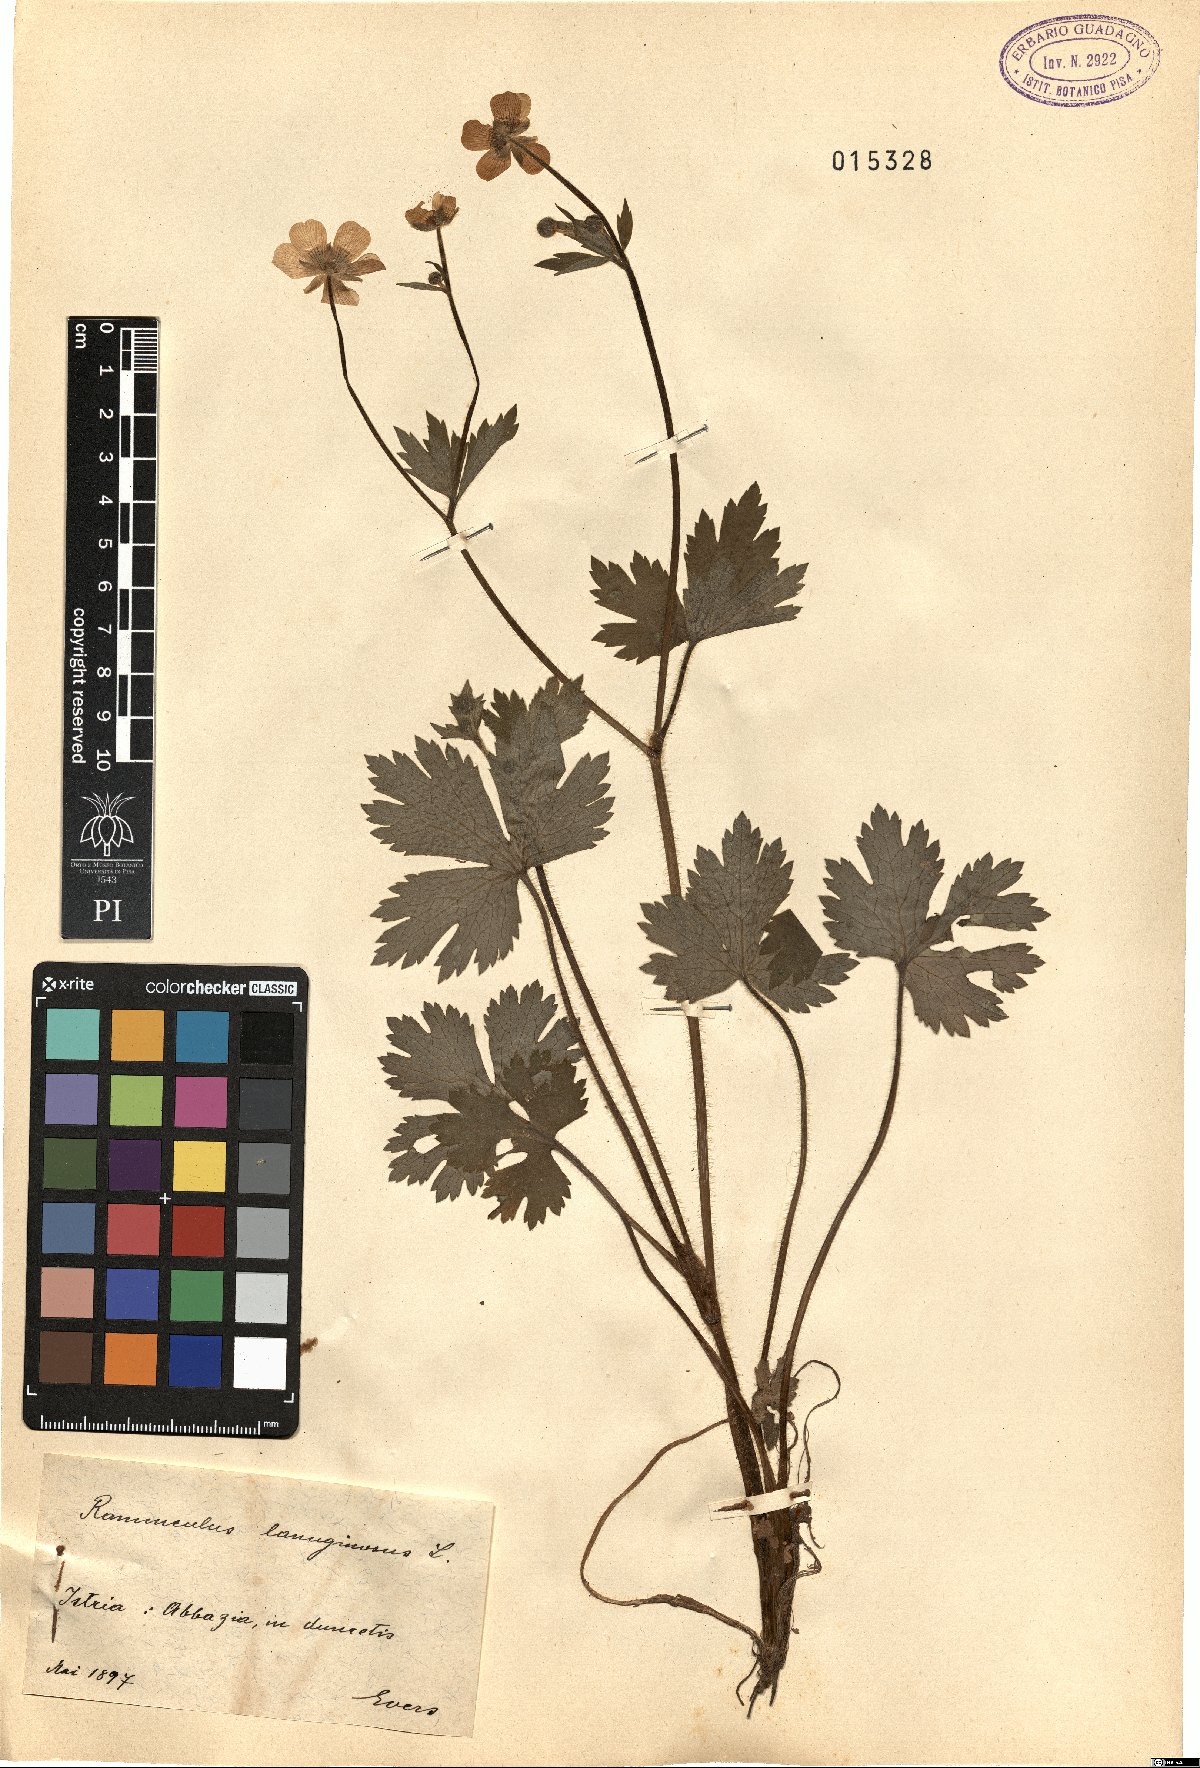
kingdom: Plantae
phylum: Tracheophyta
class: Magnoliopsida
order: Ranunculales
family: Ranunculaceae
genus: Ranunculus
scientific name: Ranunculus lanuginosus
